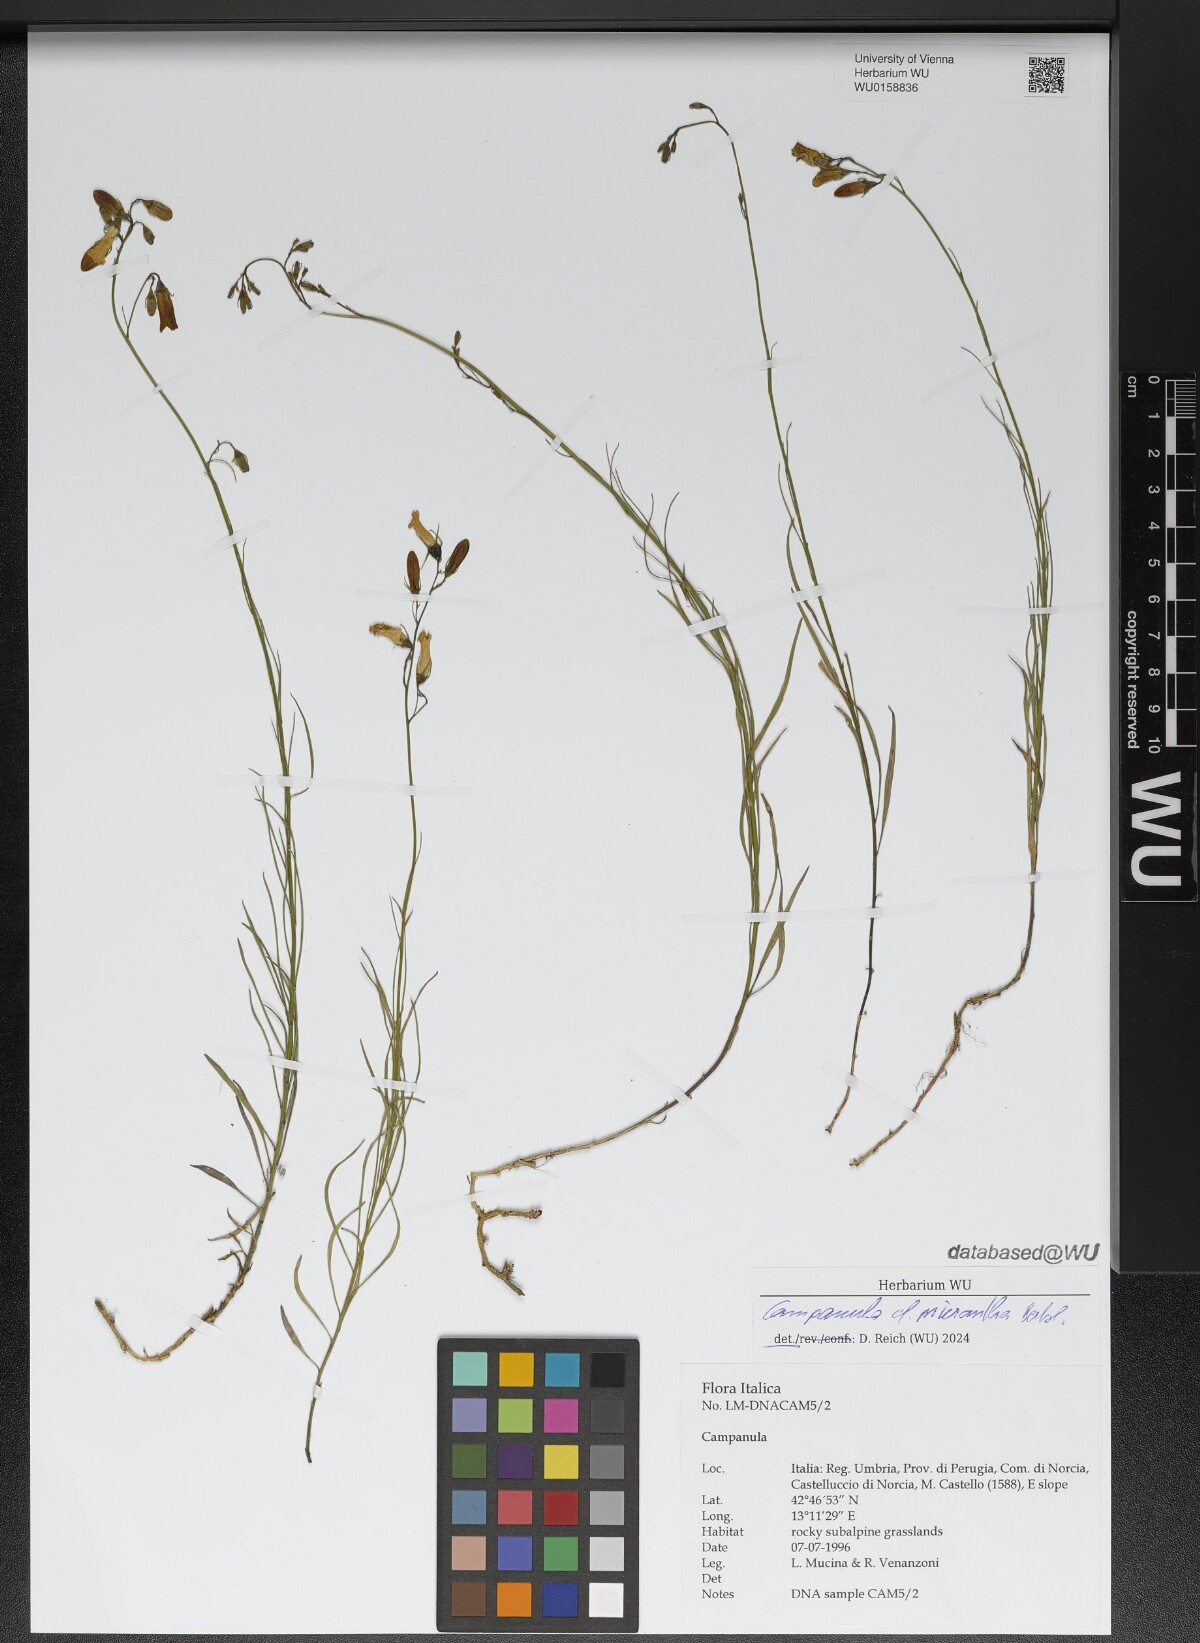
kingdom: Plantae
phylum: Tracheophyta
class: Magnoliopsida
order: Asterales
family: Campanulaceae
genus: Campanula
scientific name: Campanula micrantha
